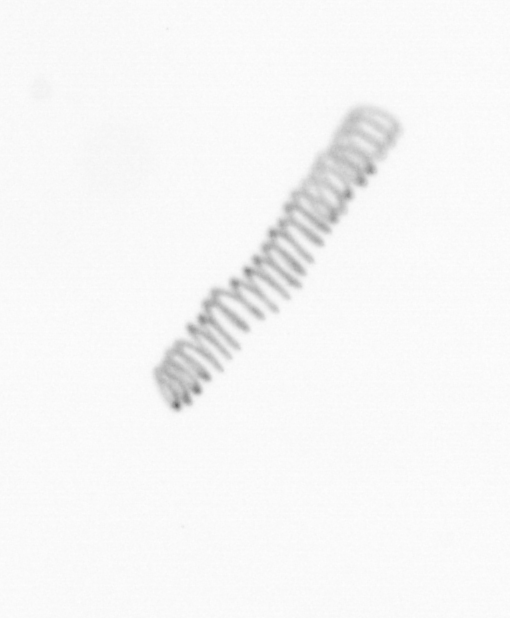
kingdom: Chromista
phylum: Ochrophyta
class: Bacillariophyceae
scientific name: Bacillariophyceae
